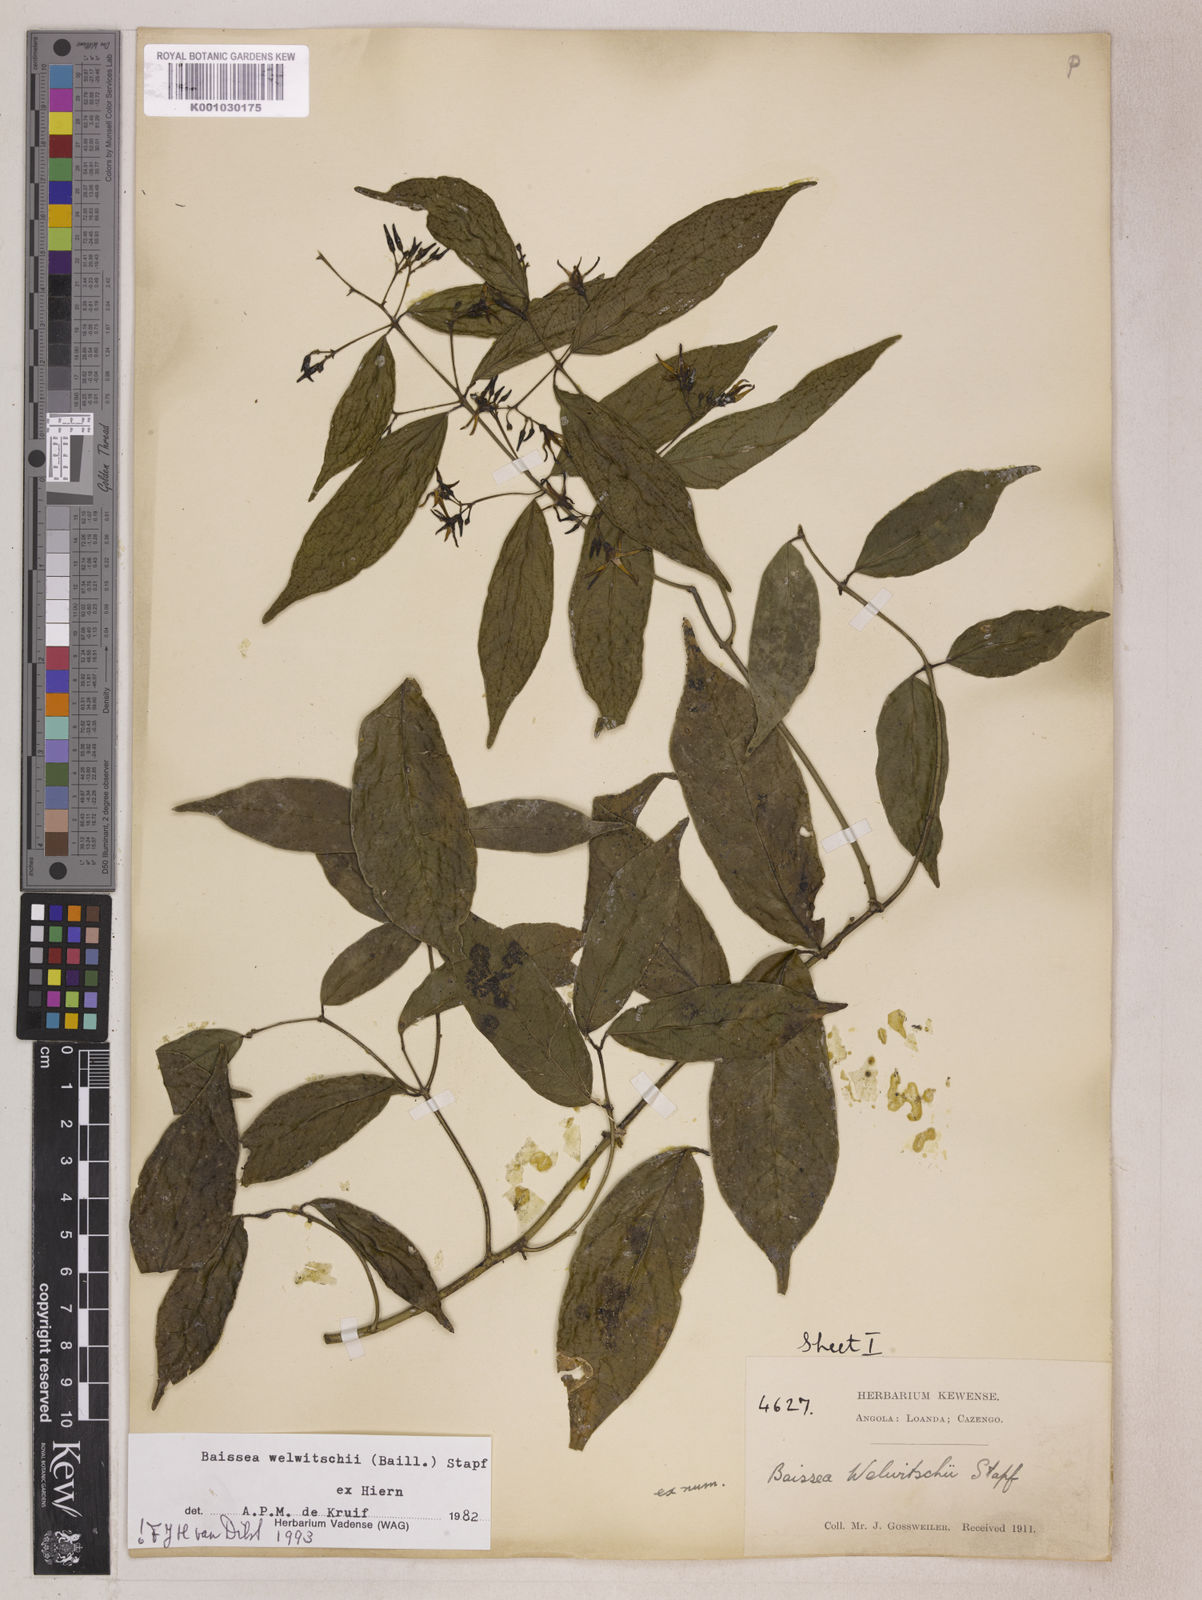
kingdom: Plantae
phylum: Tracheophyta
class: Magnoliopsida
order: Gentianales
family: Apocynaceae
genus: Baissea
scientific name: Baissea welwitschii
